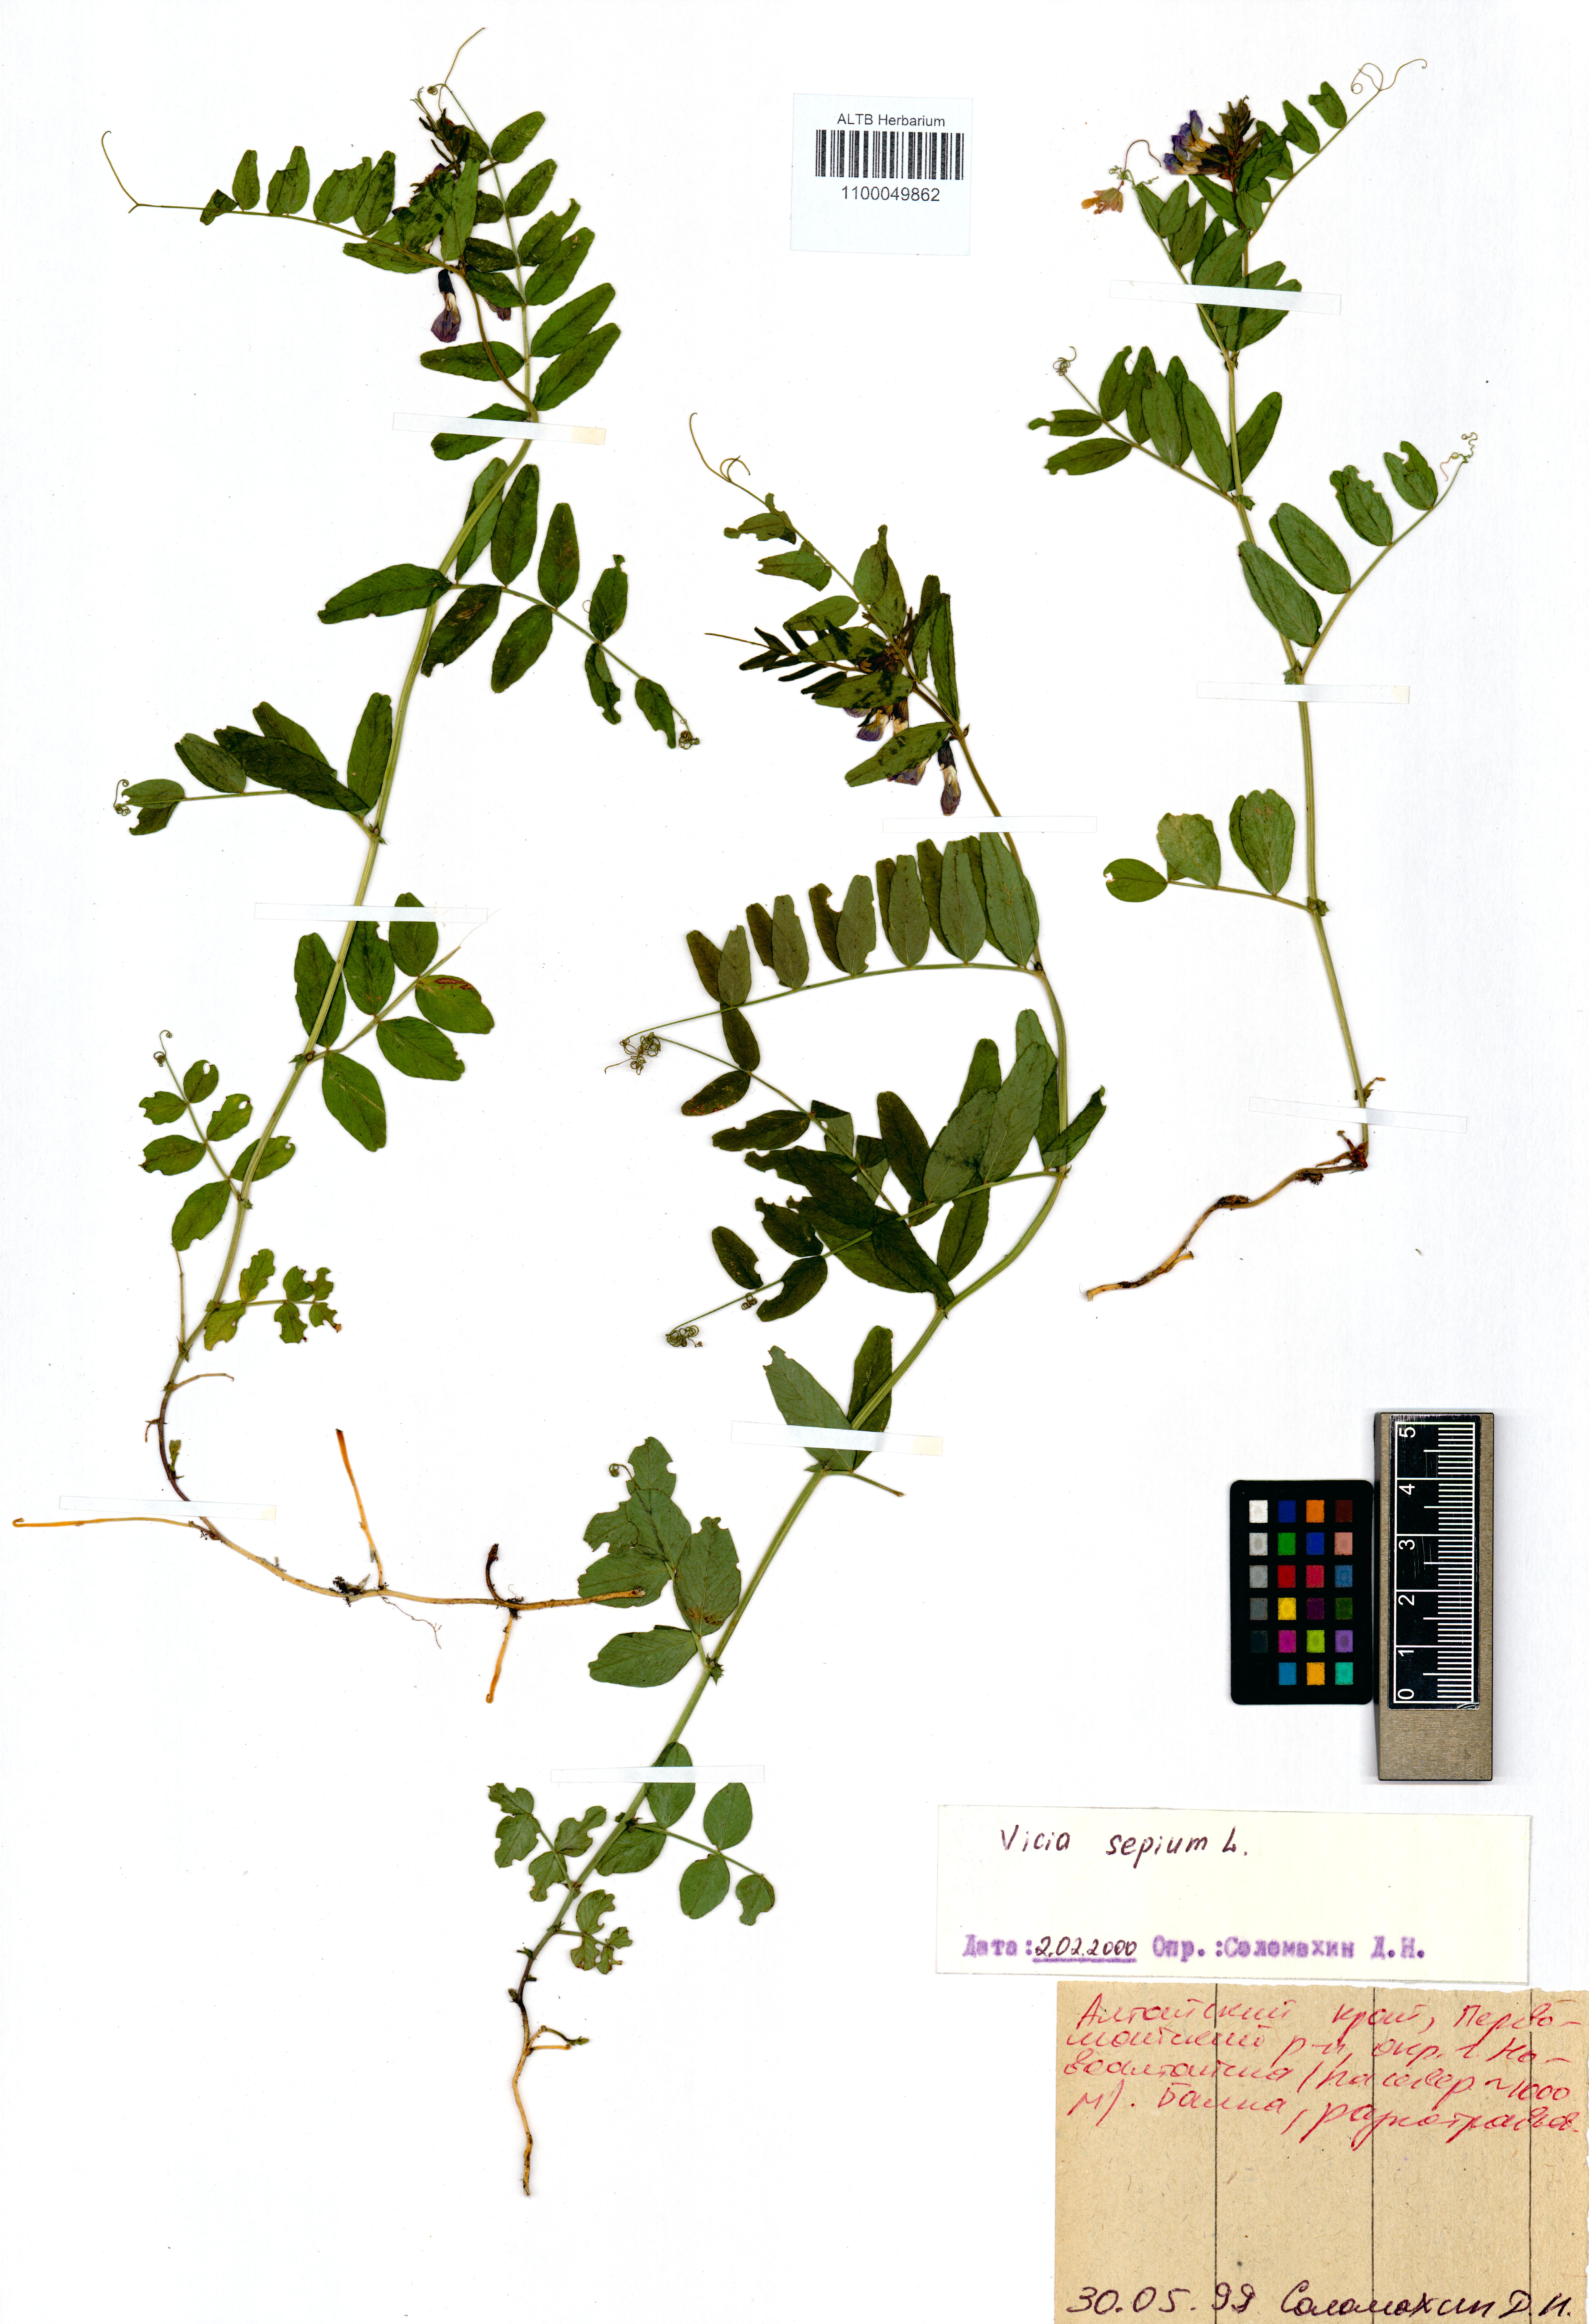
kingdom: Plantae
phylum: Tracheophyta
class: Magnoliopsida
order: Fabales
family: Fabaceae
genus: Vicia
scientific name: Vicia sepium
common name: Bush vetch
